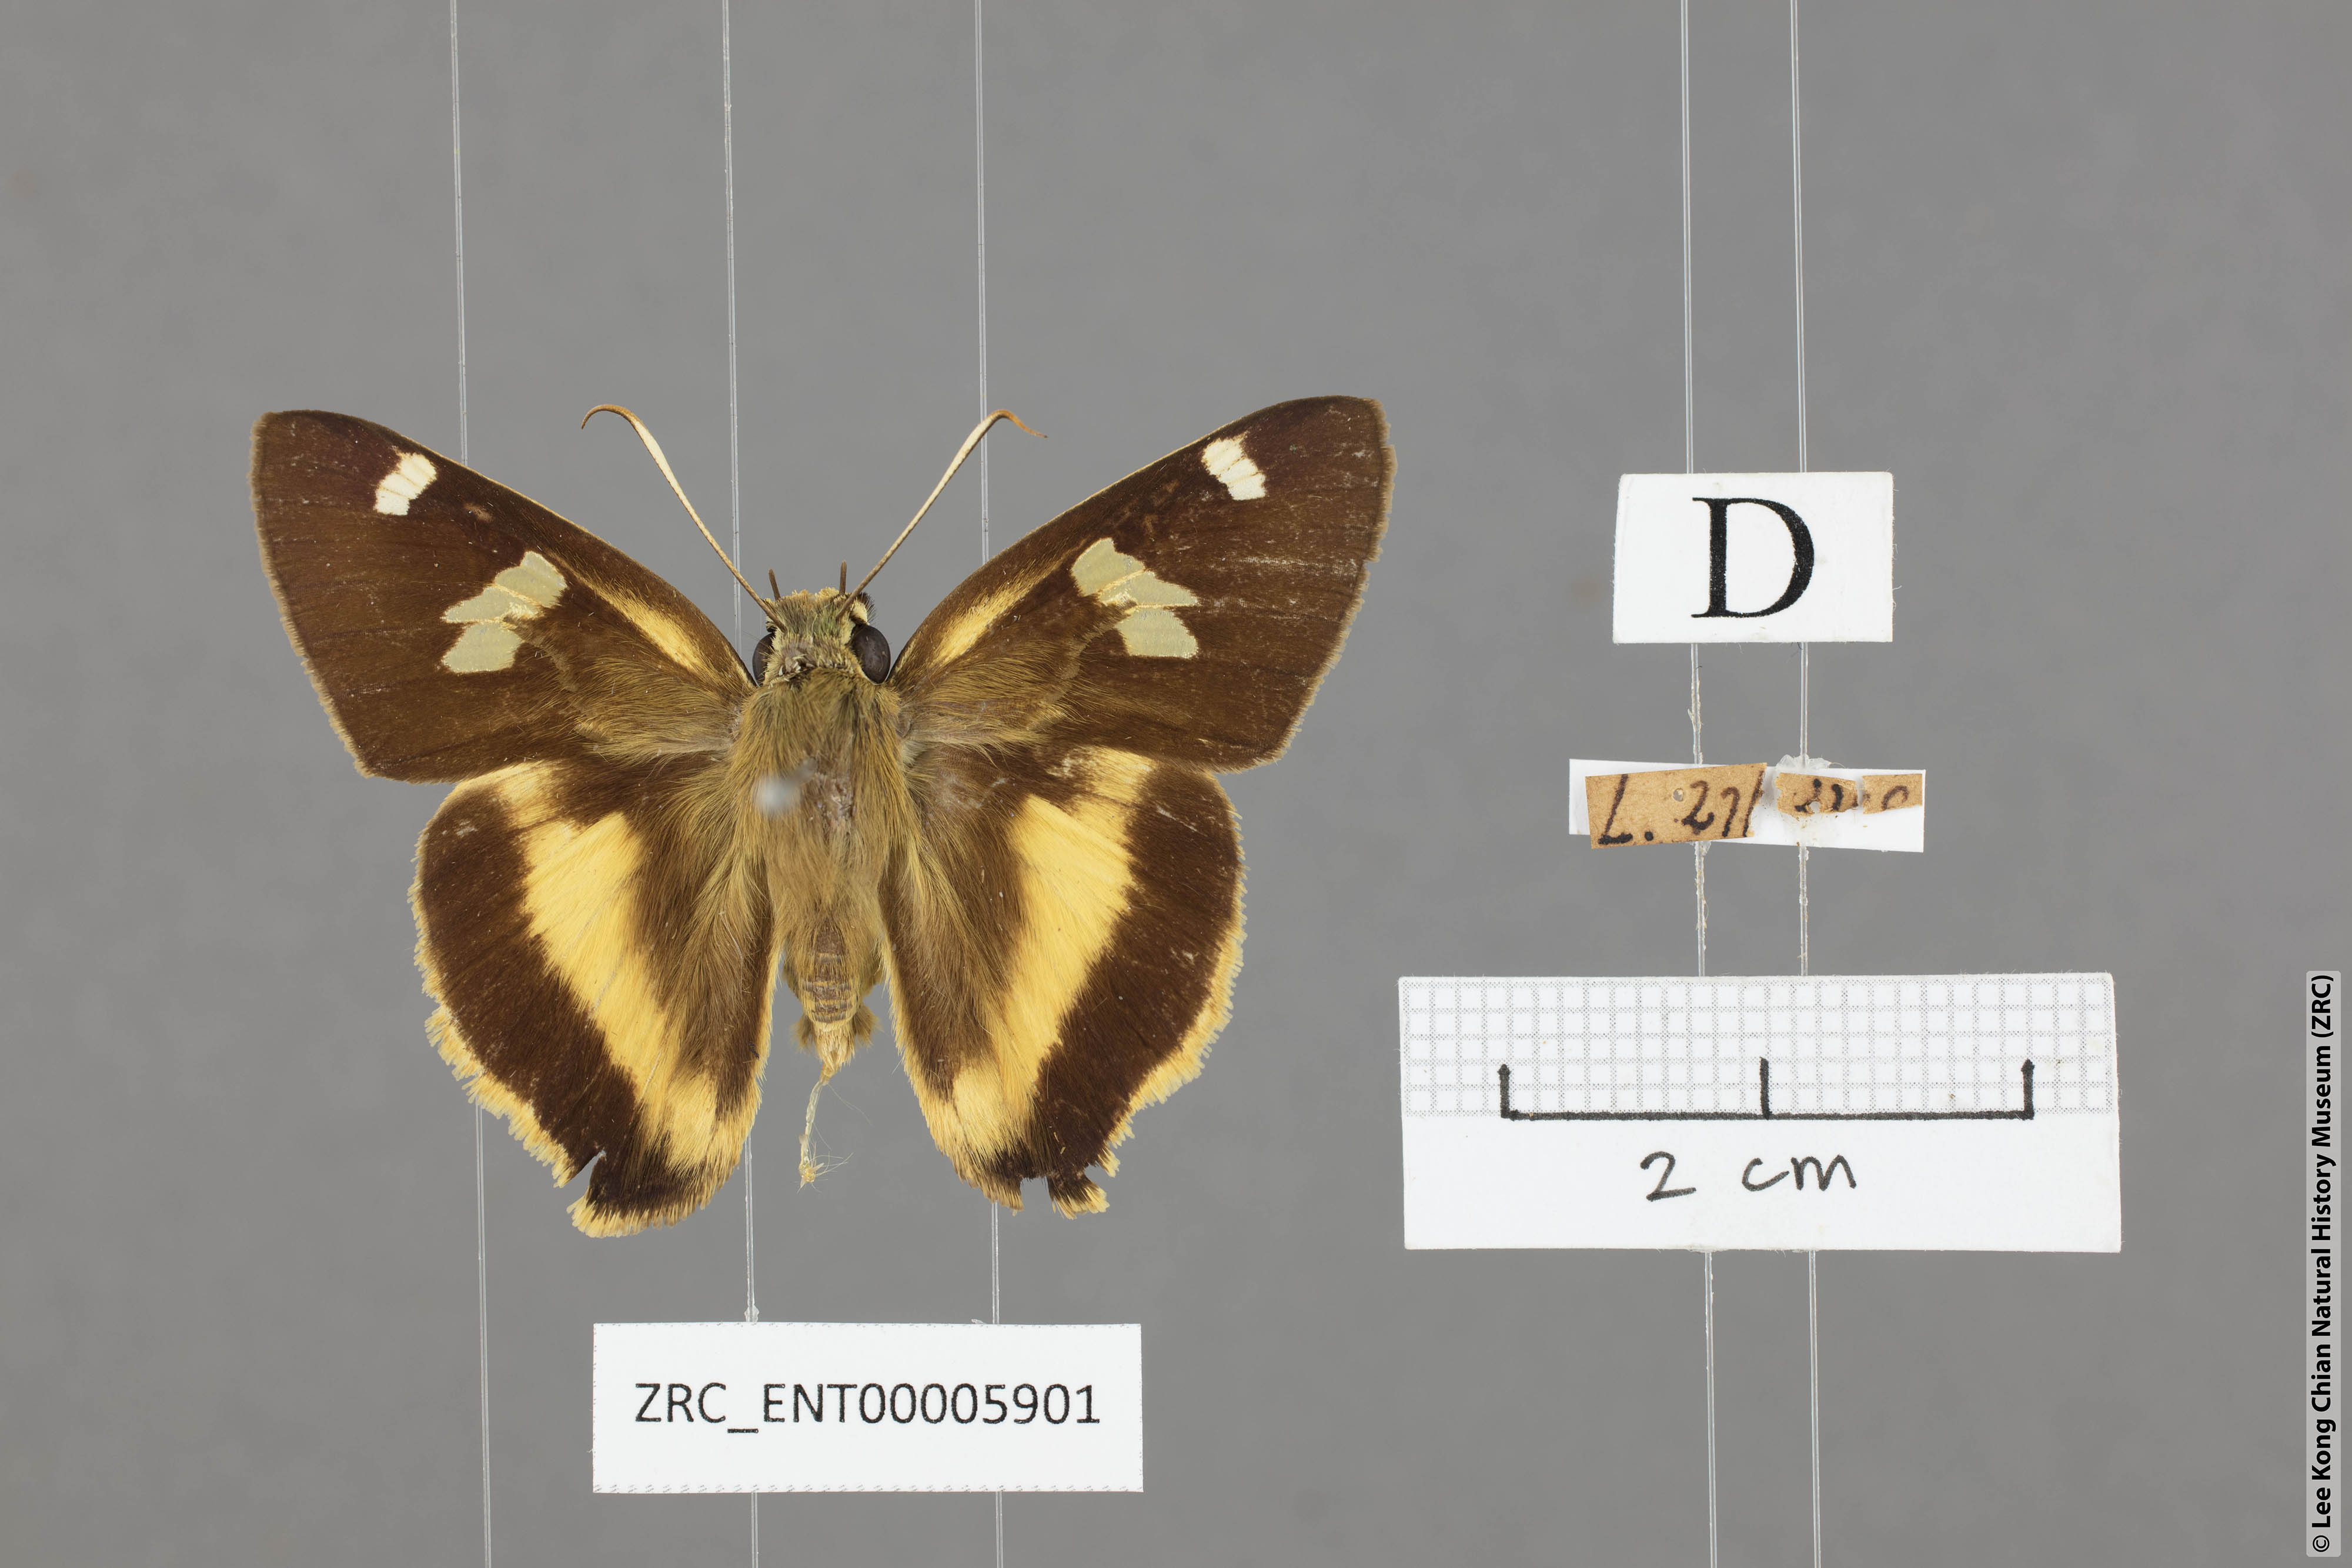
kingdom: Animalia
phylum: Arthropoda
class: Insecta
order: Lepidoptera
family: Hesperiidae
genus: Hasora
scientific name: Hasora schoenherr
